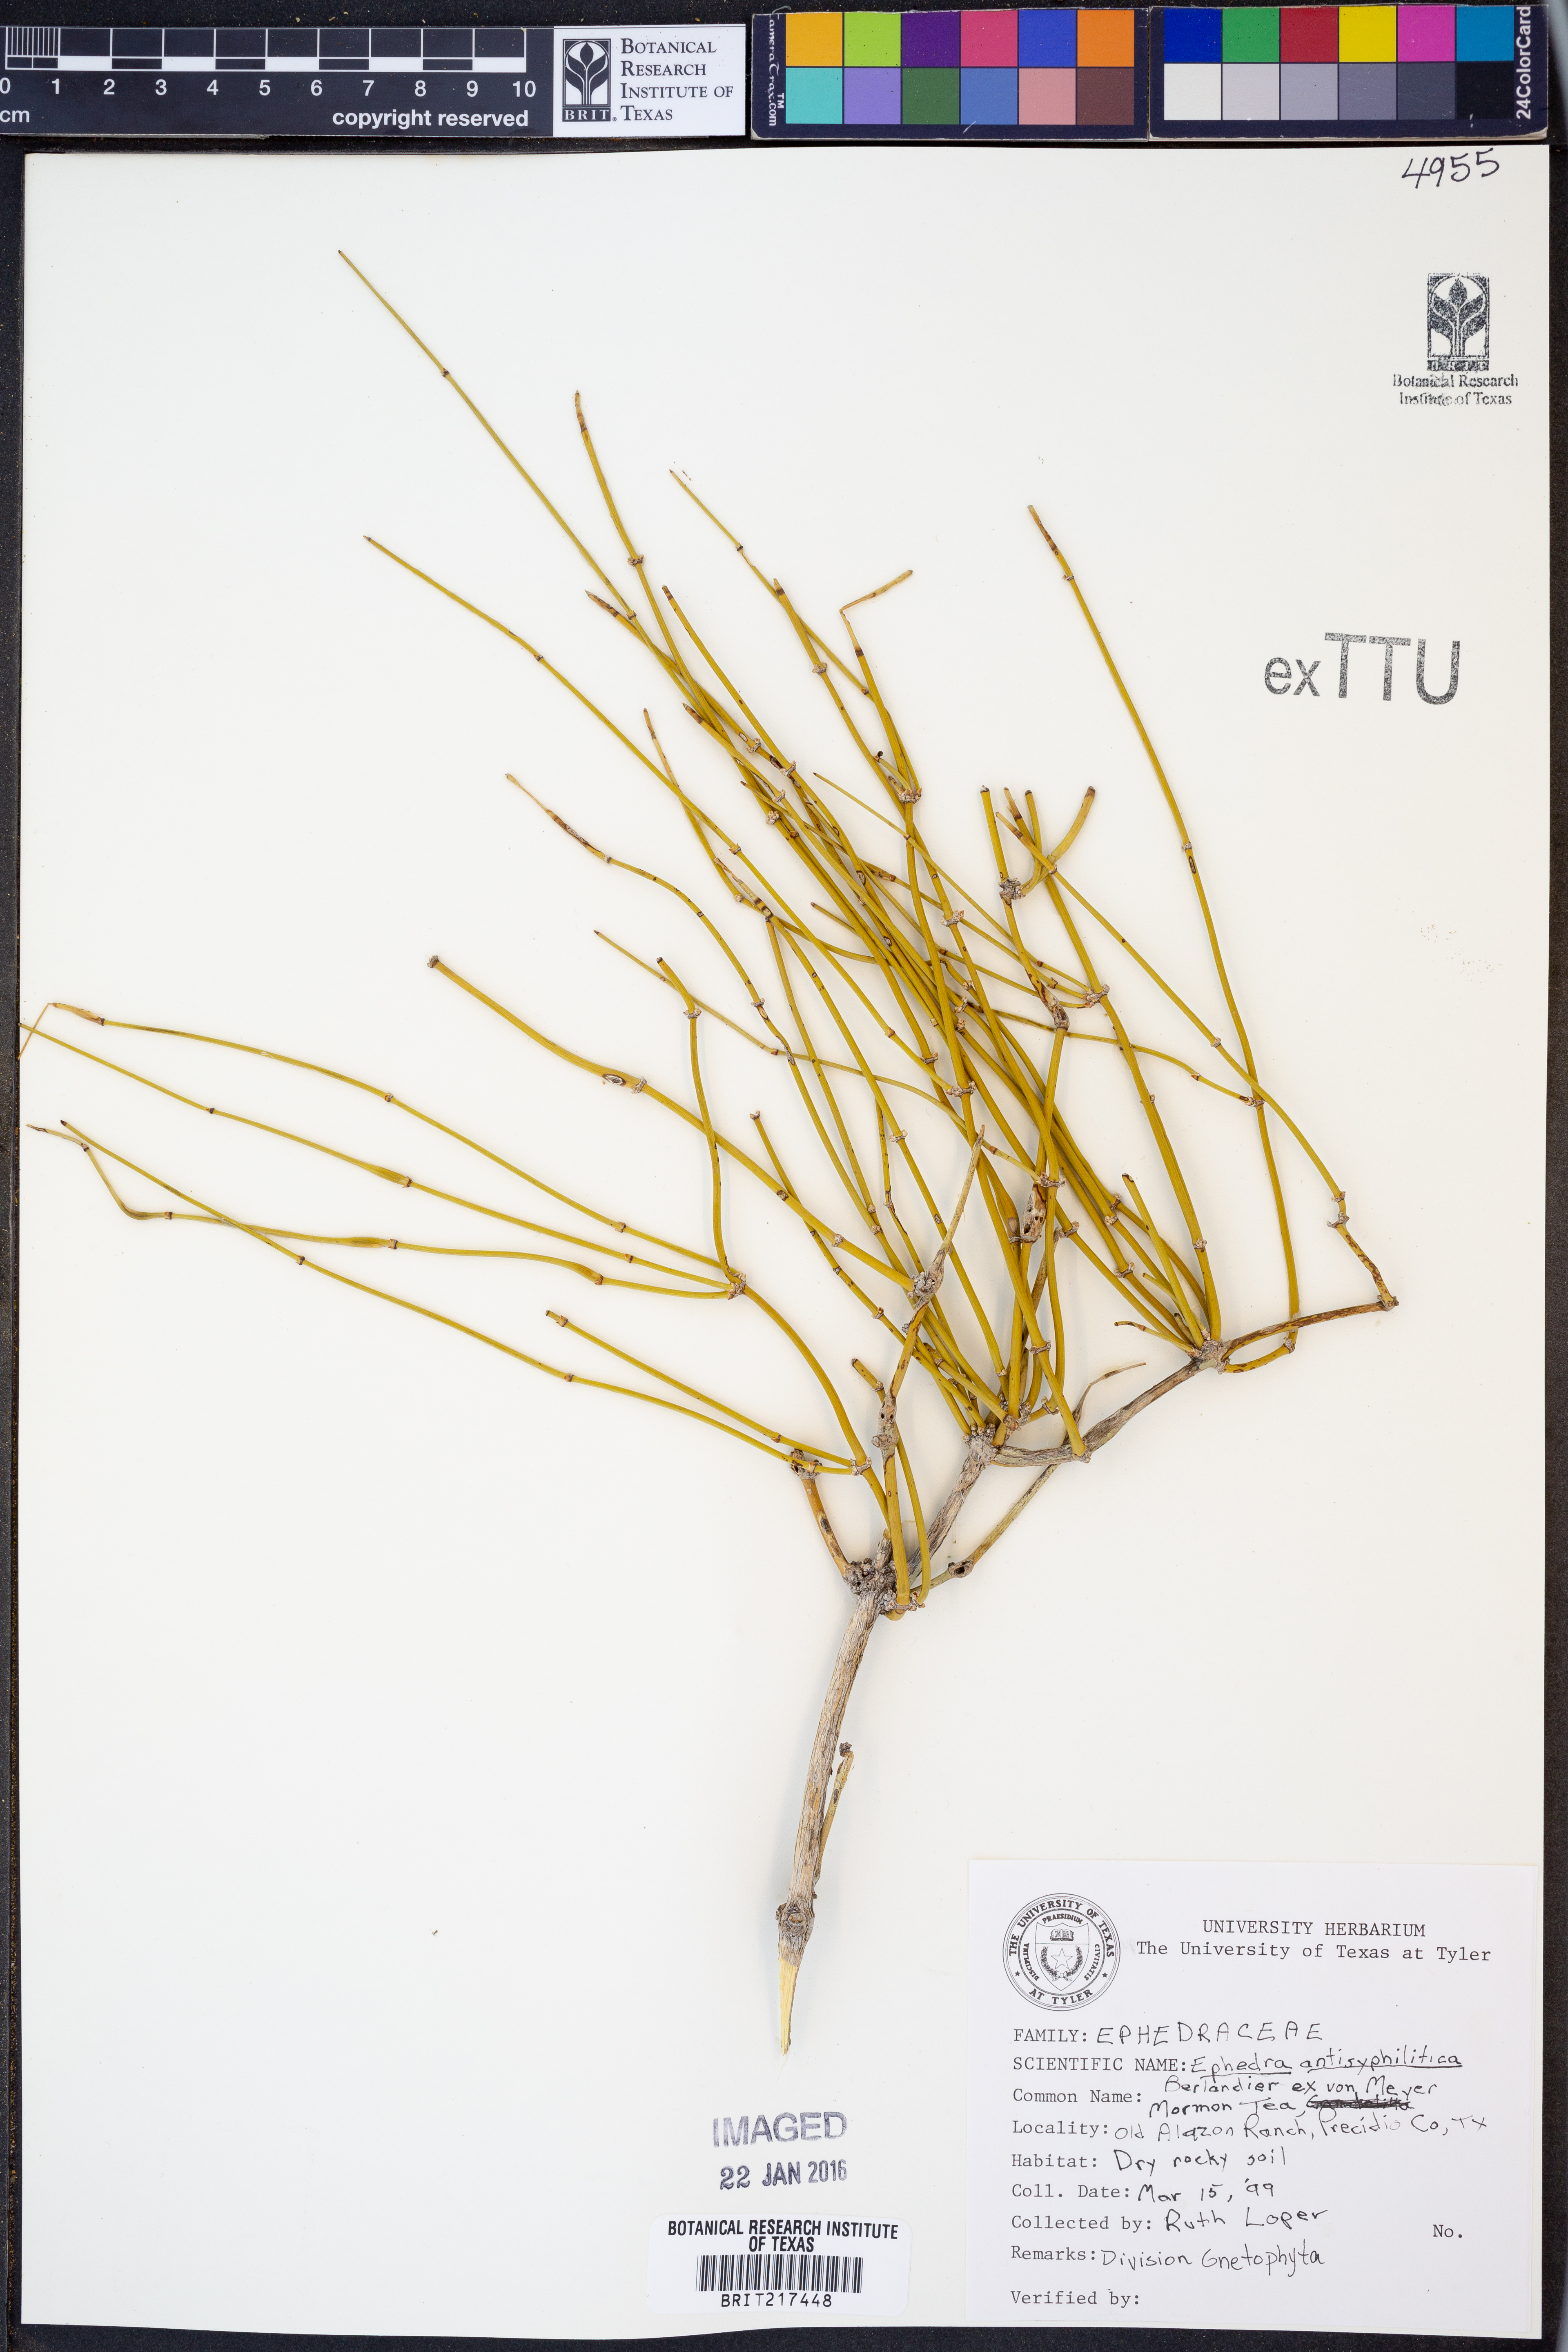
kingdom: Plantae
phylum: Tracheophyta
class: Gnetopsida
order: Ephedrales
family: Ephedraceae
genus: Ephedra
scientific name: Ephedra antisyphilitica
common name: Clipweed
